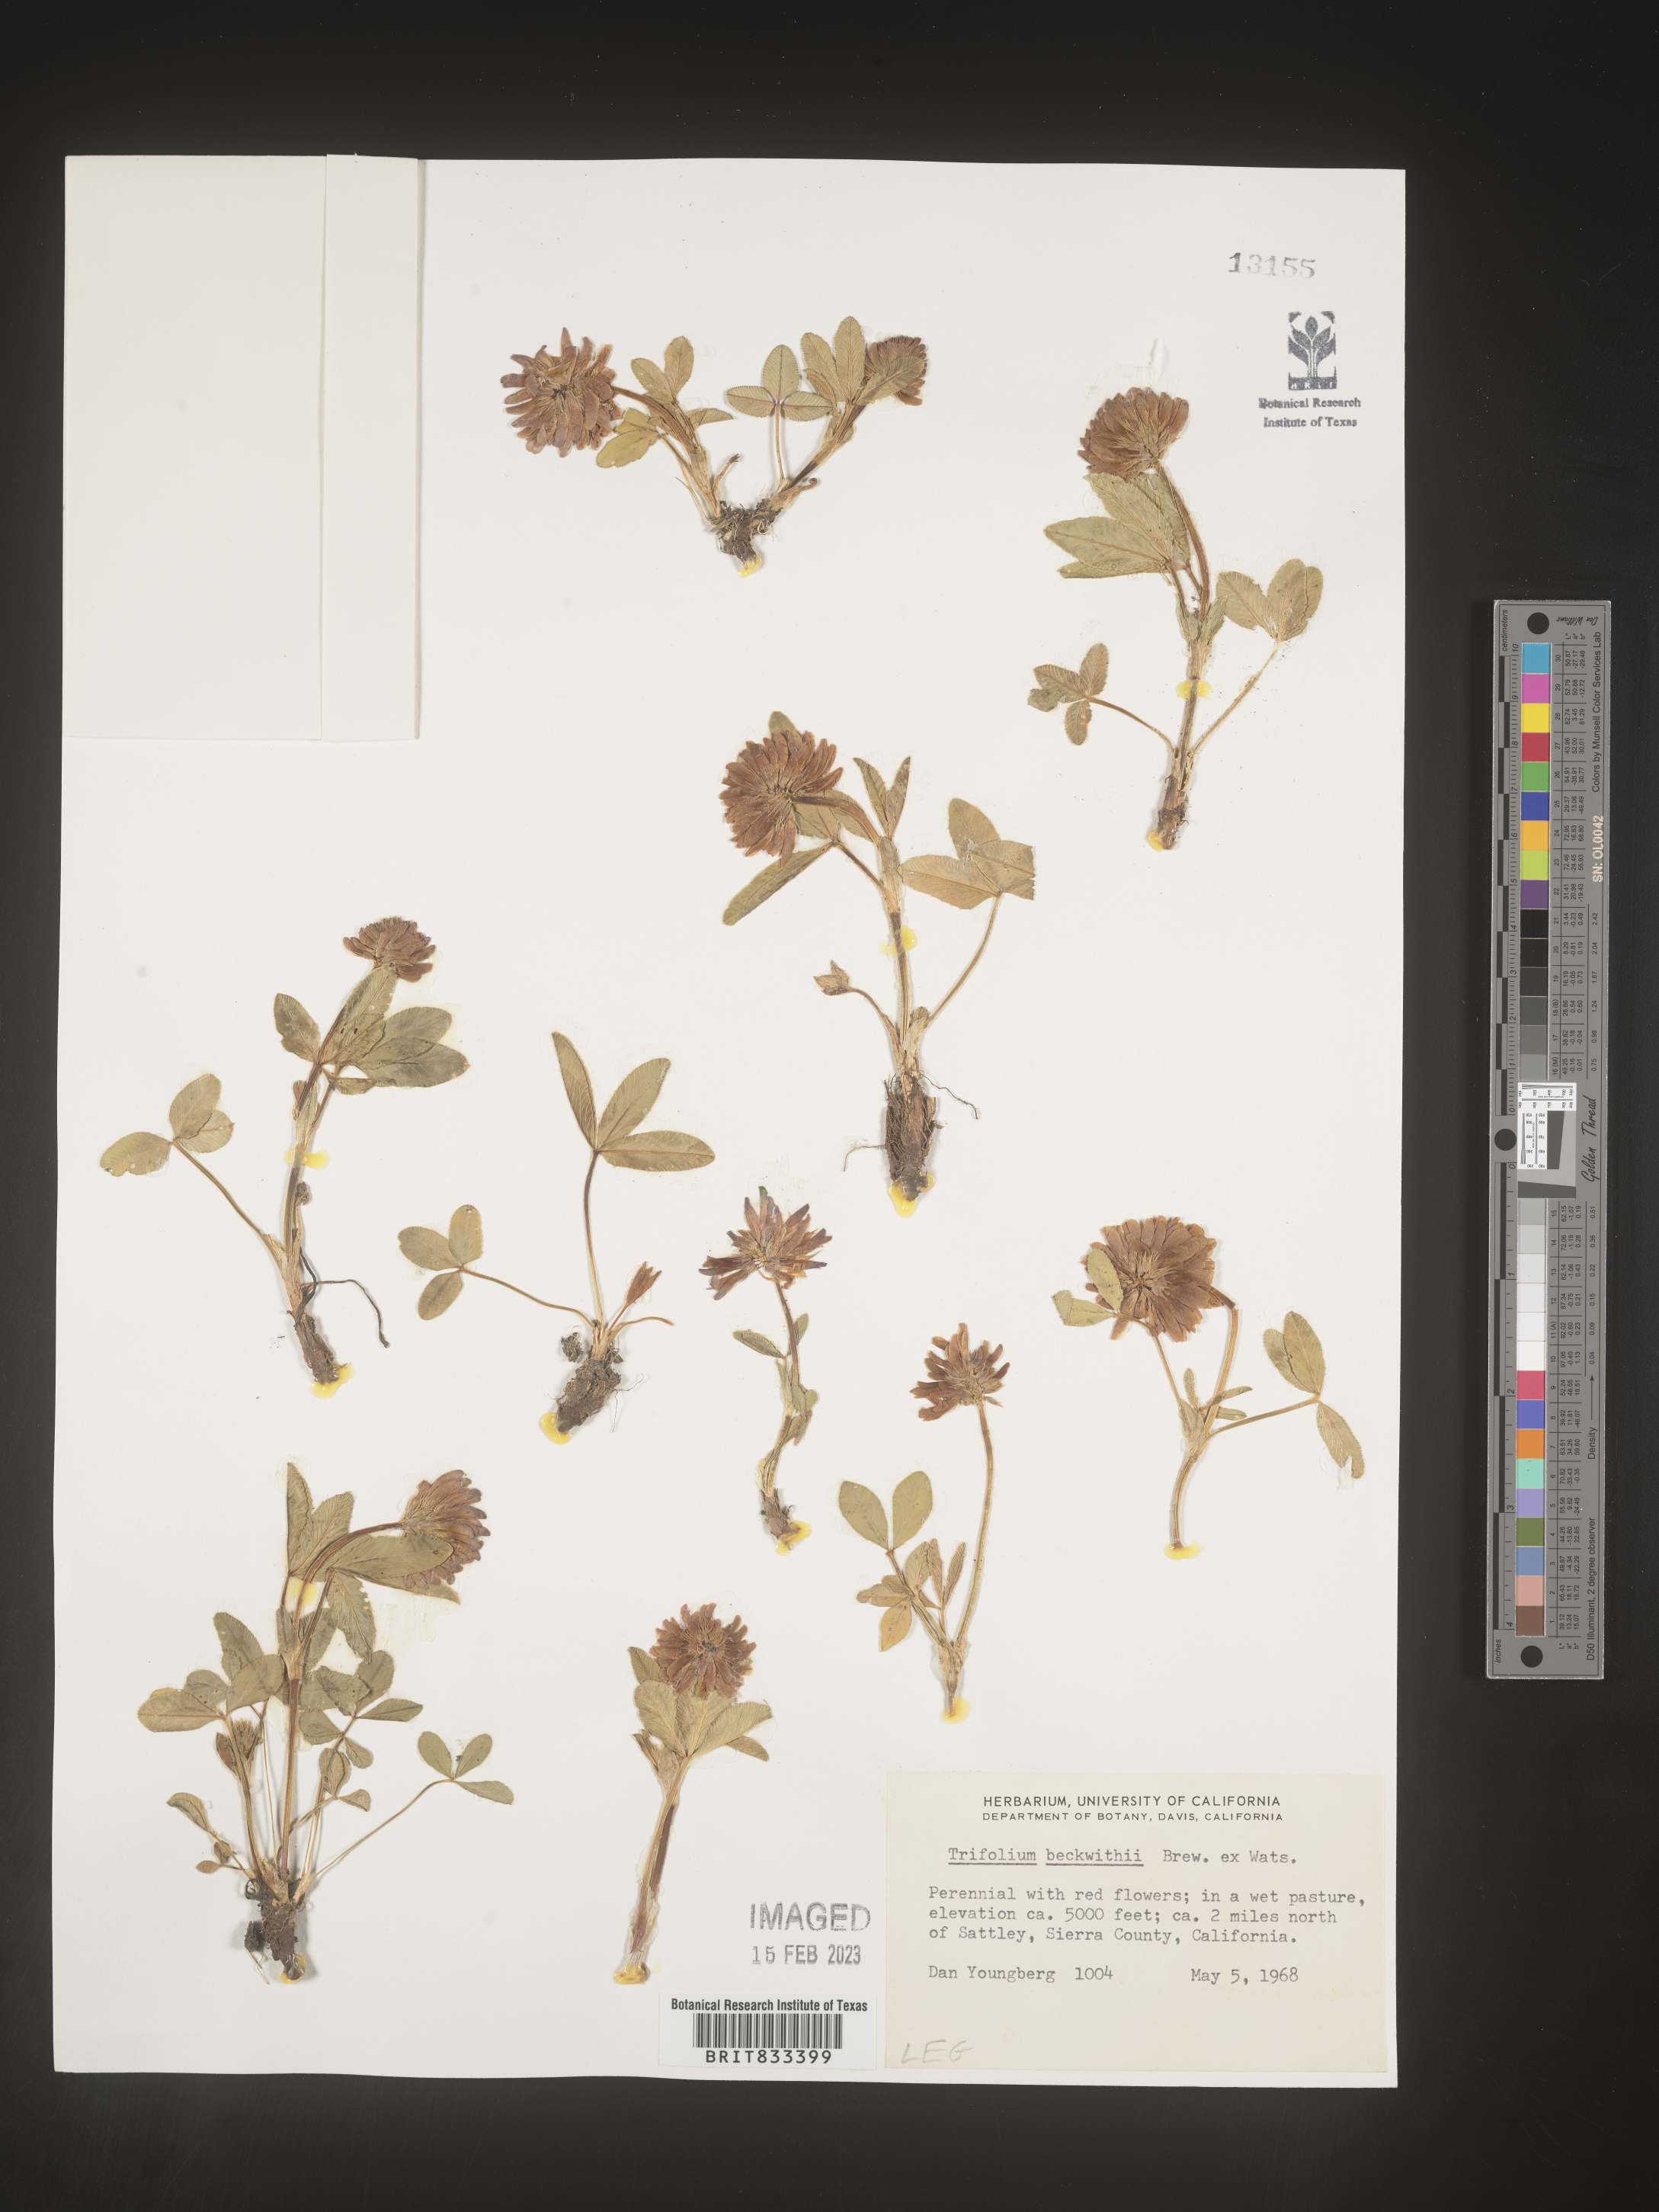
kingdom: Plantae
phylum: Tracheophyta
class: Magnoliopsida
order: Fabales
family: Fabaceae
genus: Trifolium
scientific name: Trifolium
